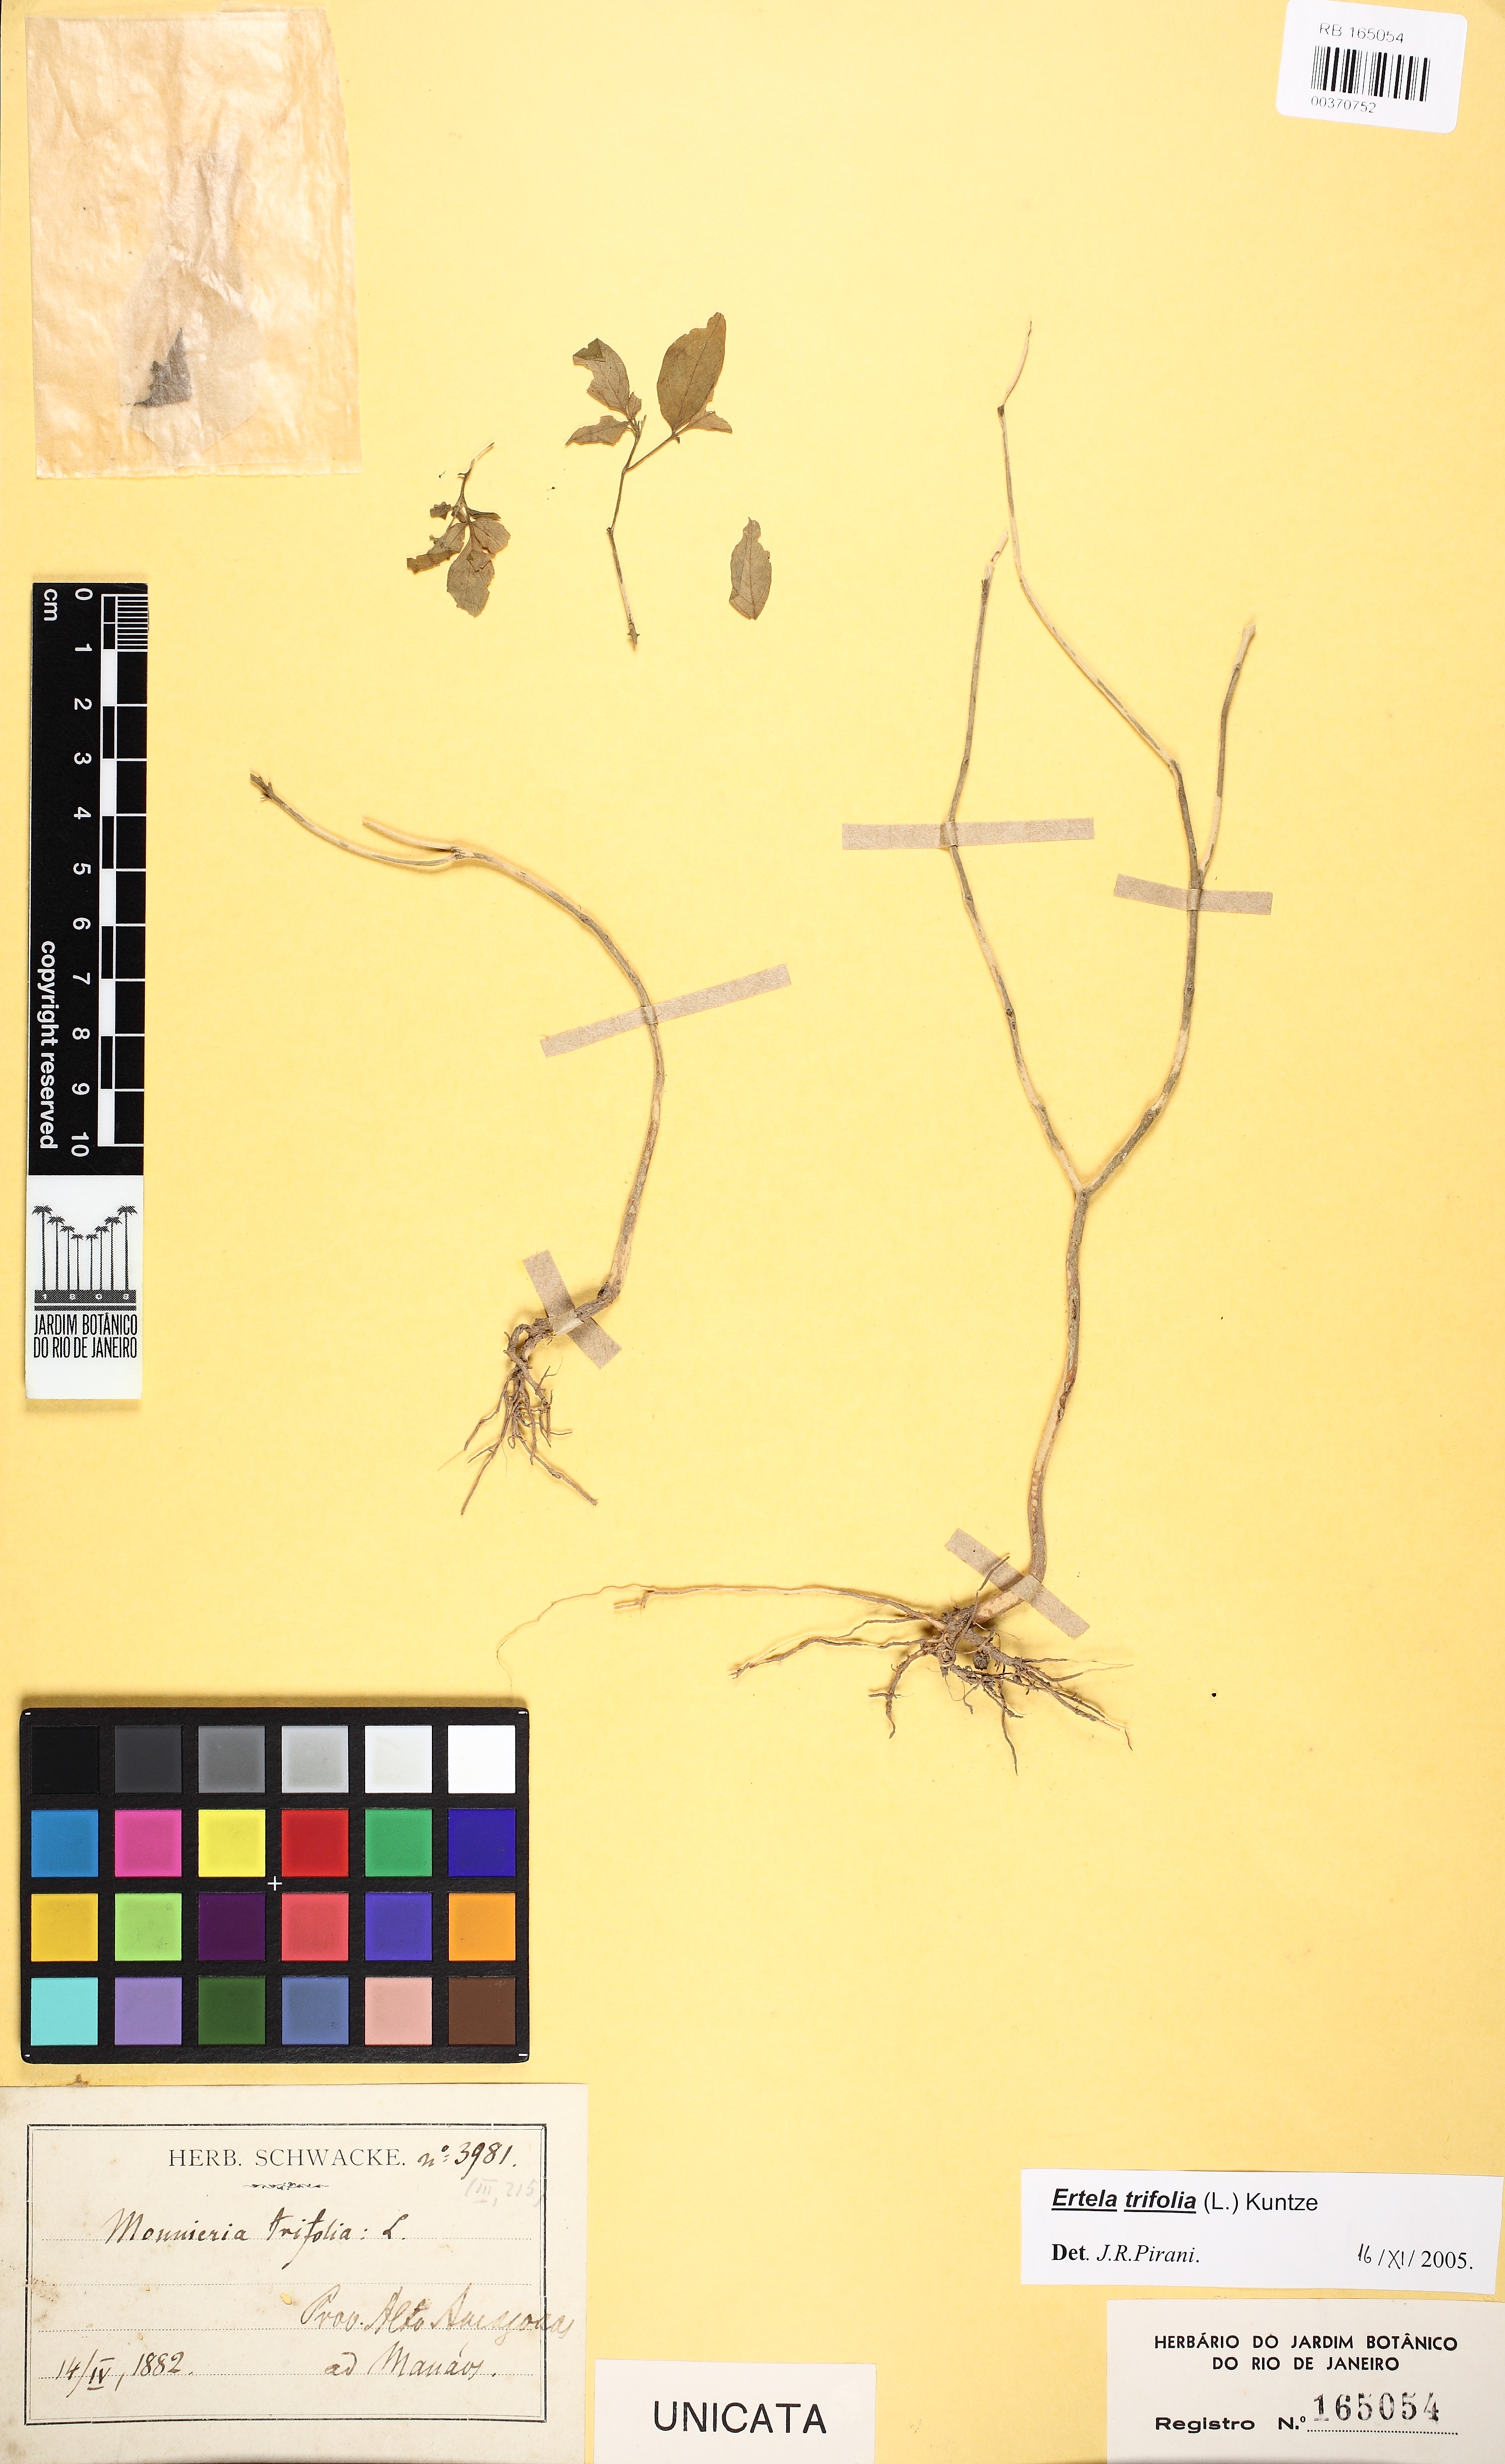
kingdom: Plantae
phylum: Tracheophyta
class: Magnoliopsida
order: Sapindales
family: Rutaceae
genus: Ertela
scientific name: Ertela trifolia
